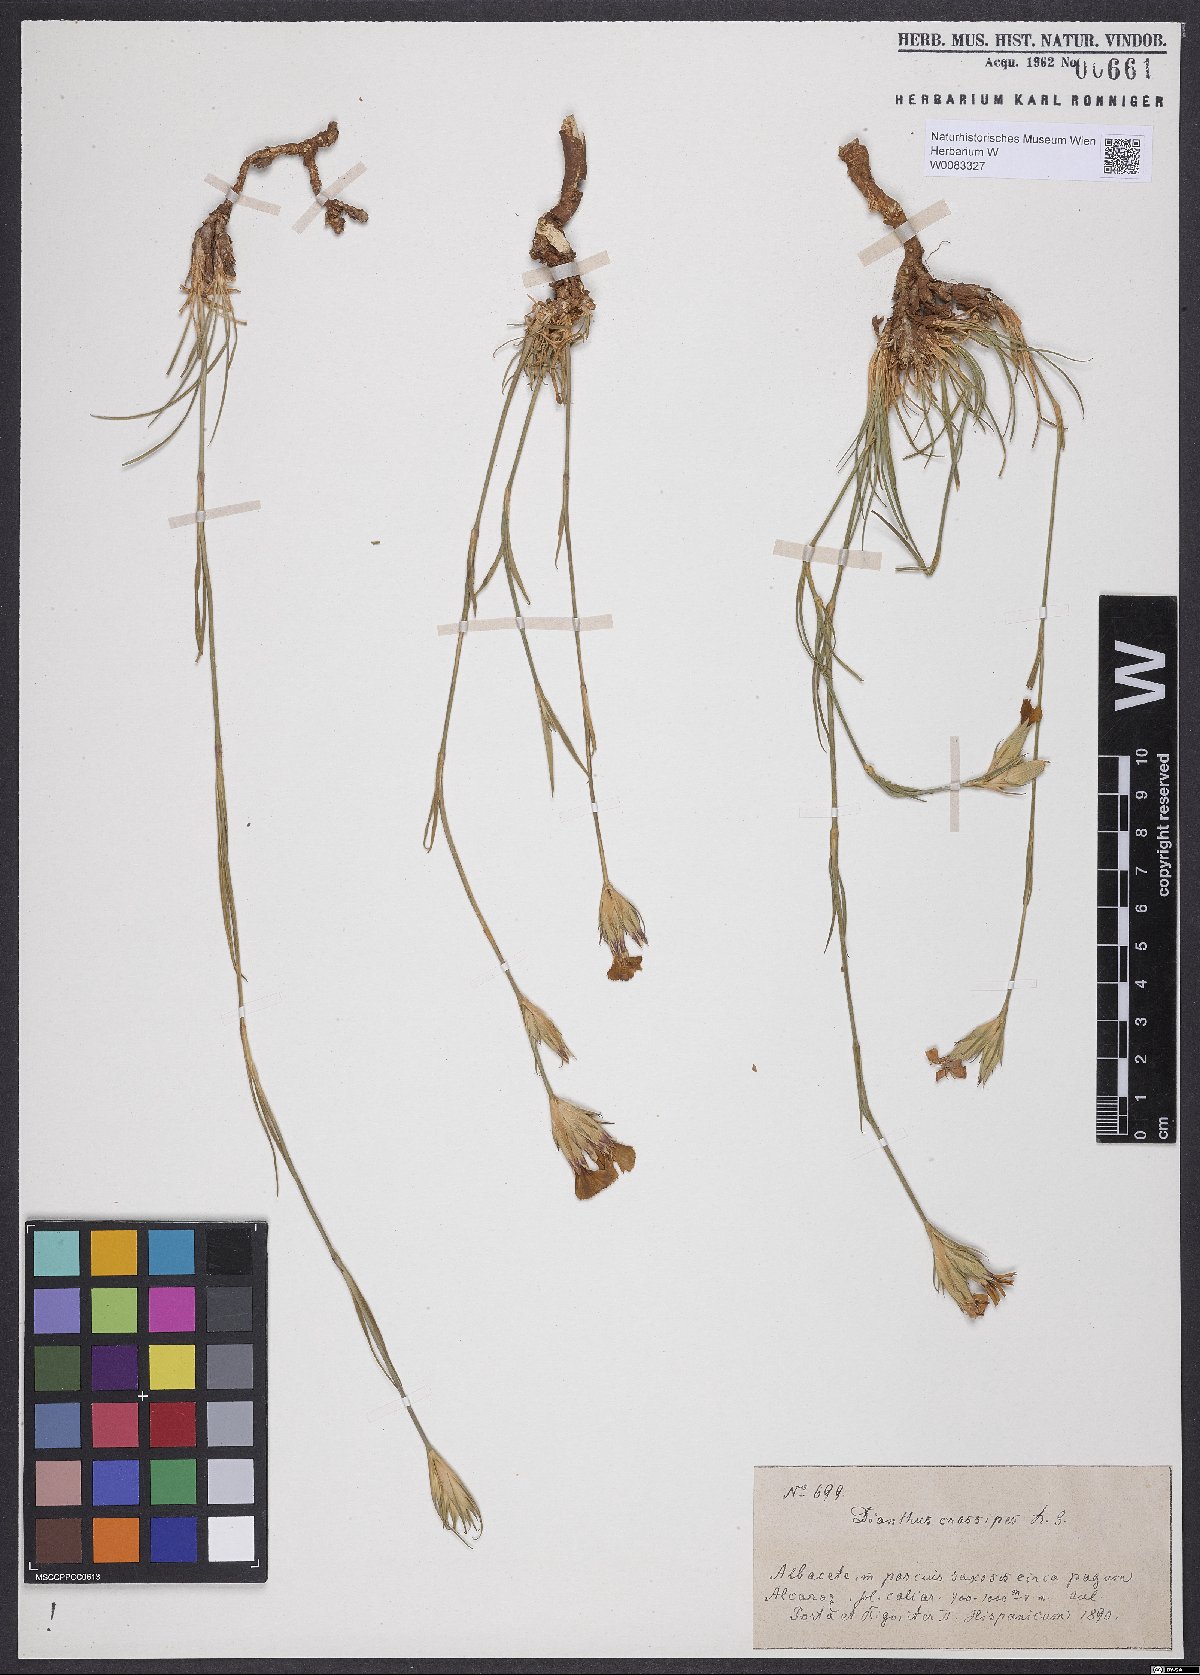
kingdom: Plantae
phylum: Tracheophyta
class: Magnoliopsida
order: Caryophyllales
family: Caryophyllaceae
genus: Dianthus
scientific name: Dianthus crassipes
